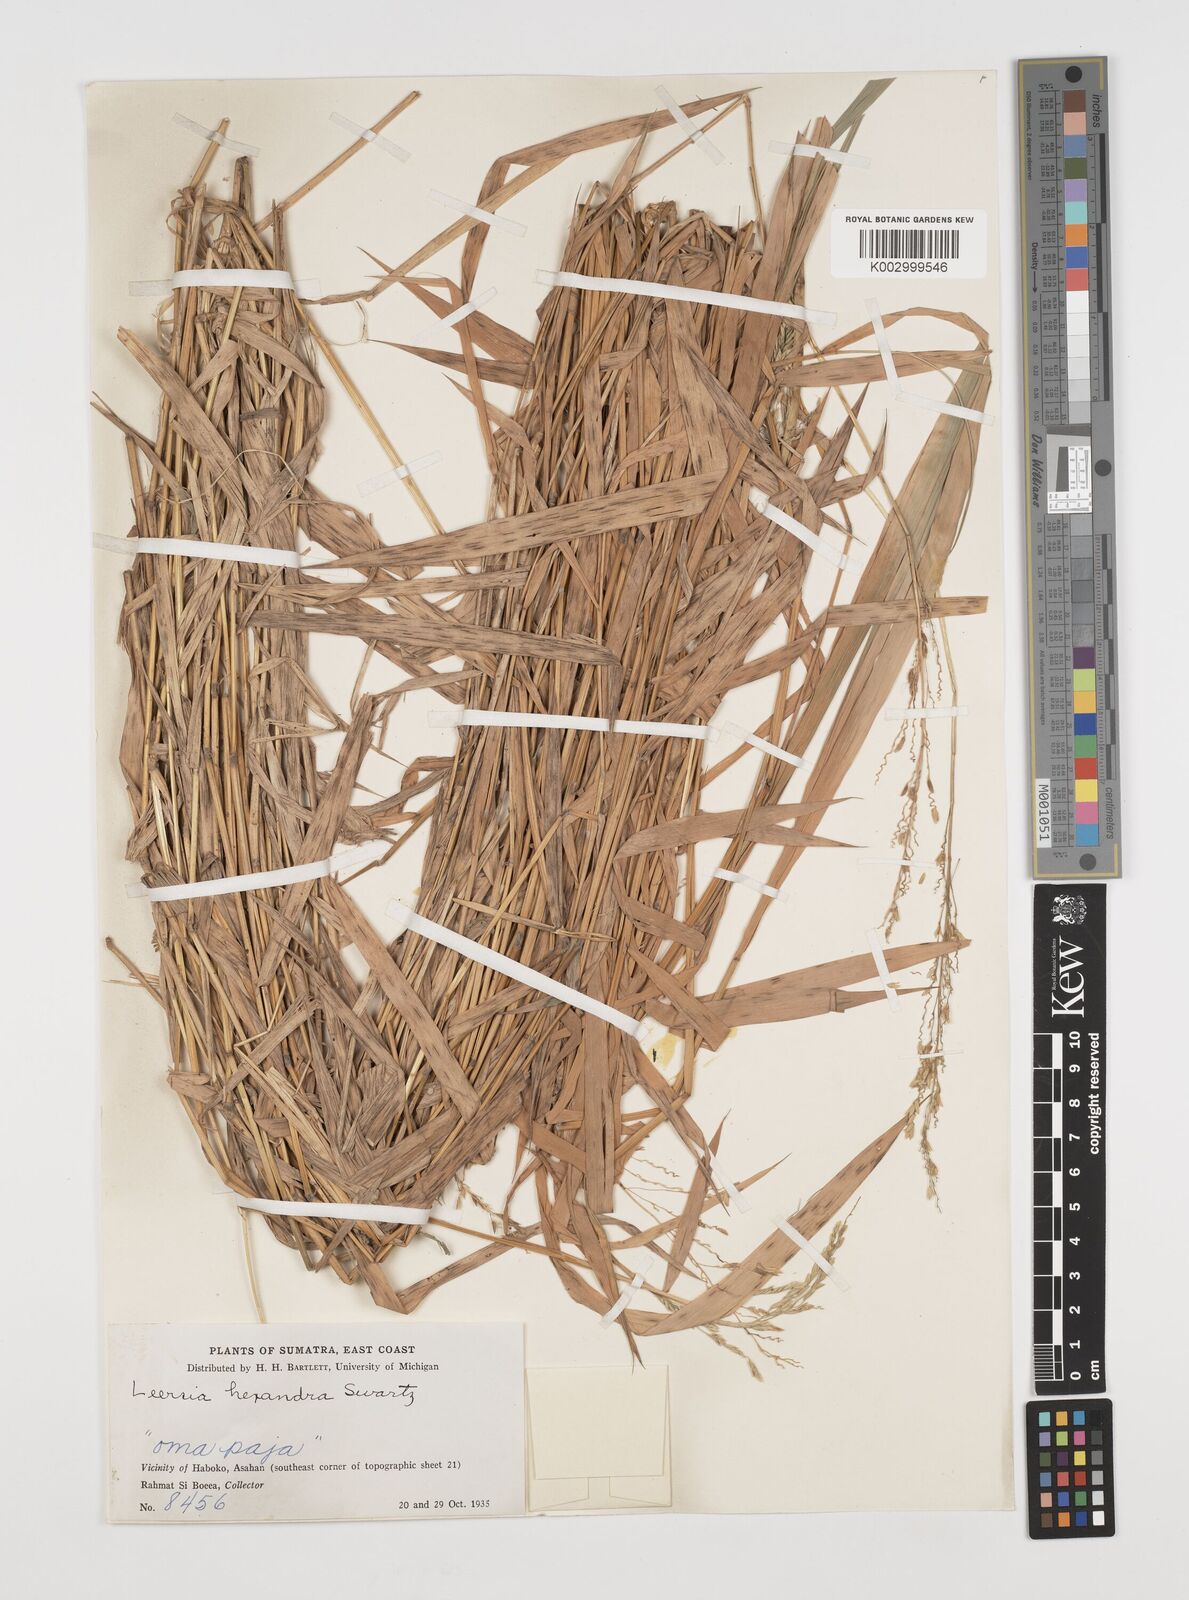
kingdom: Plantae
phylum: Tracheophyta
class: Liliopsida
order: Poales
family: Poaceae
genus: Leersia
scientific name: Leersia hexandra
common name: Southern cut grass
